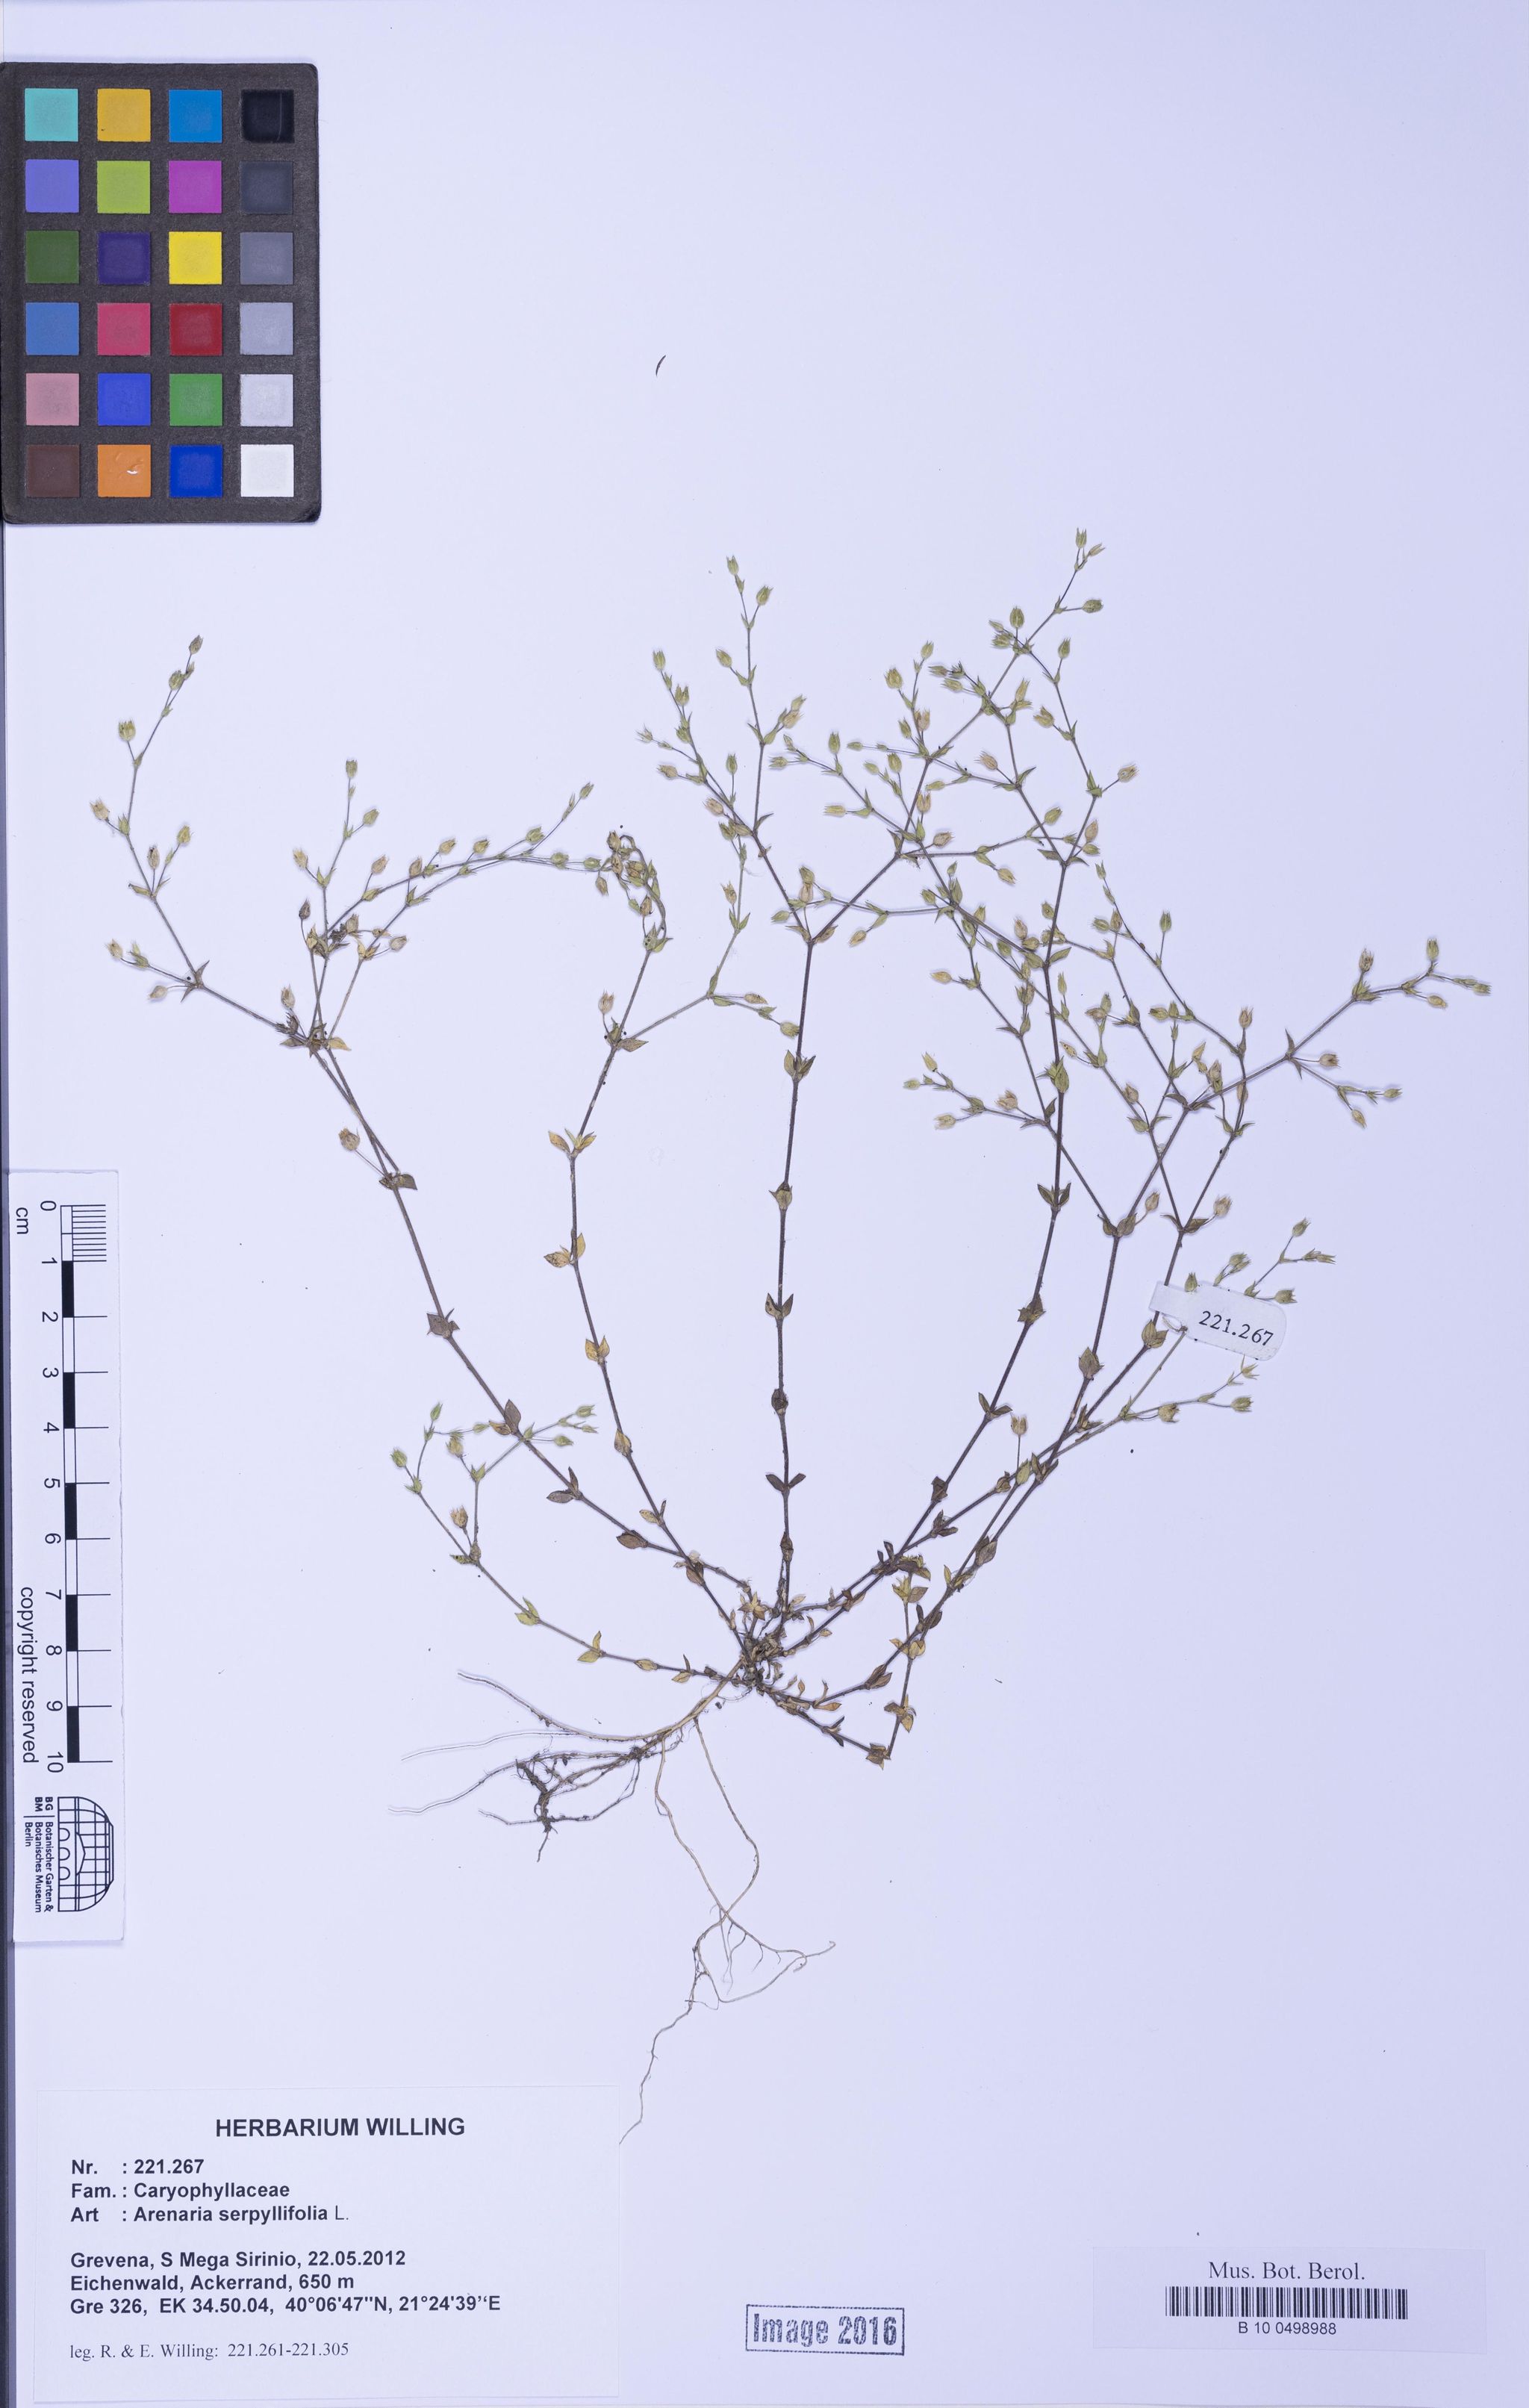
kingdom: Plantae
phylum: Tracheophyta
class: Magnoliopsida
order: Caryophyllales
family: Caryophyllaceae
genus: Arenaria
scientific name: Arenaria serpyllifolia
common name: Thyme-leaved sandwort
